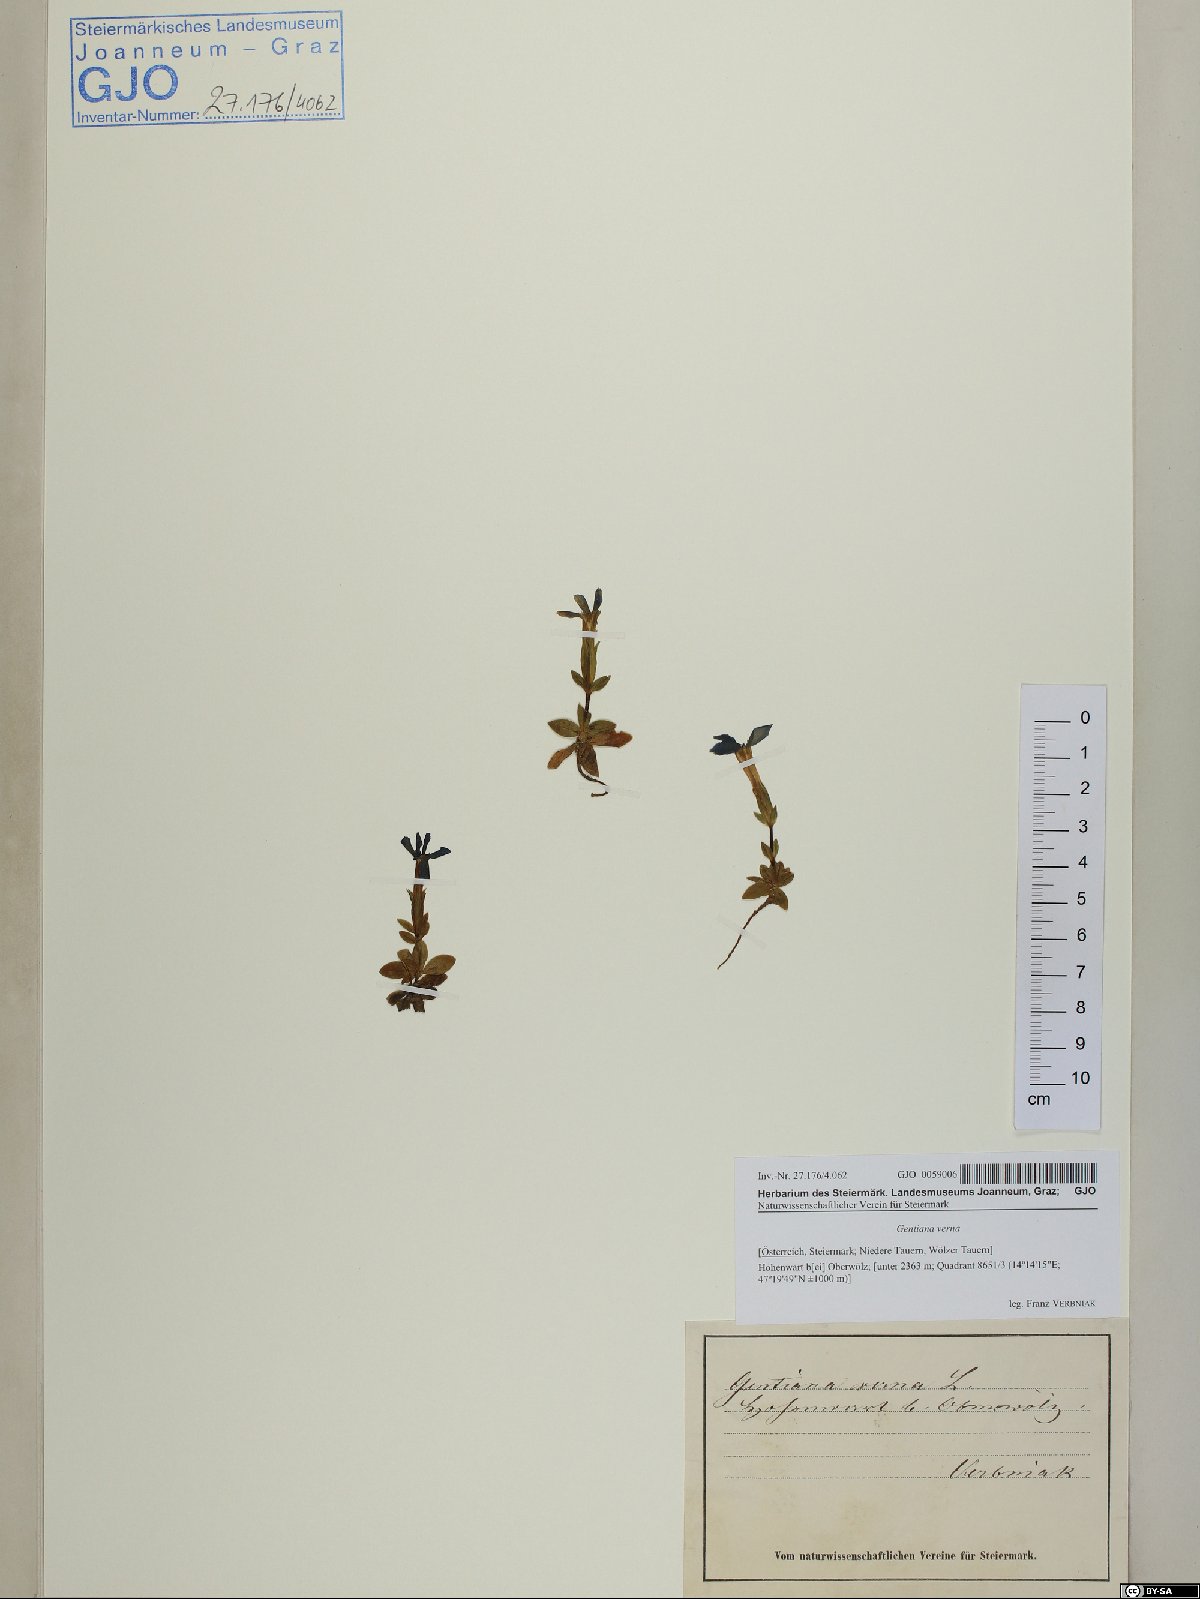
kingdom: Plantae
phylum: Tracheophyta
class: Magnoliopsida
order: Gentianales
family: Gentianaceae
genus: Gentiana
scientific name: Gentiana verna
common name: Spring gentian
